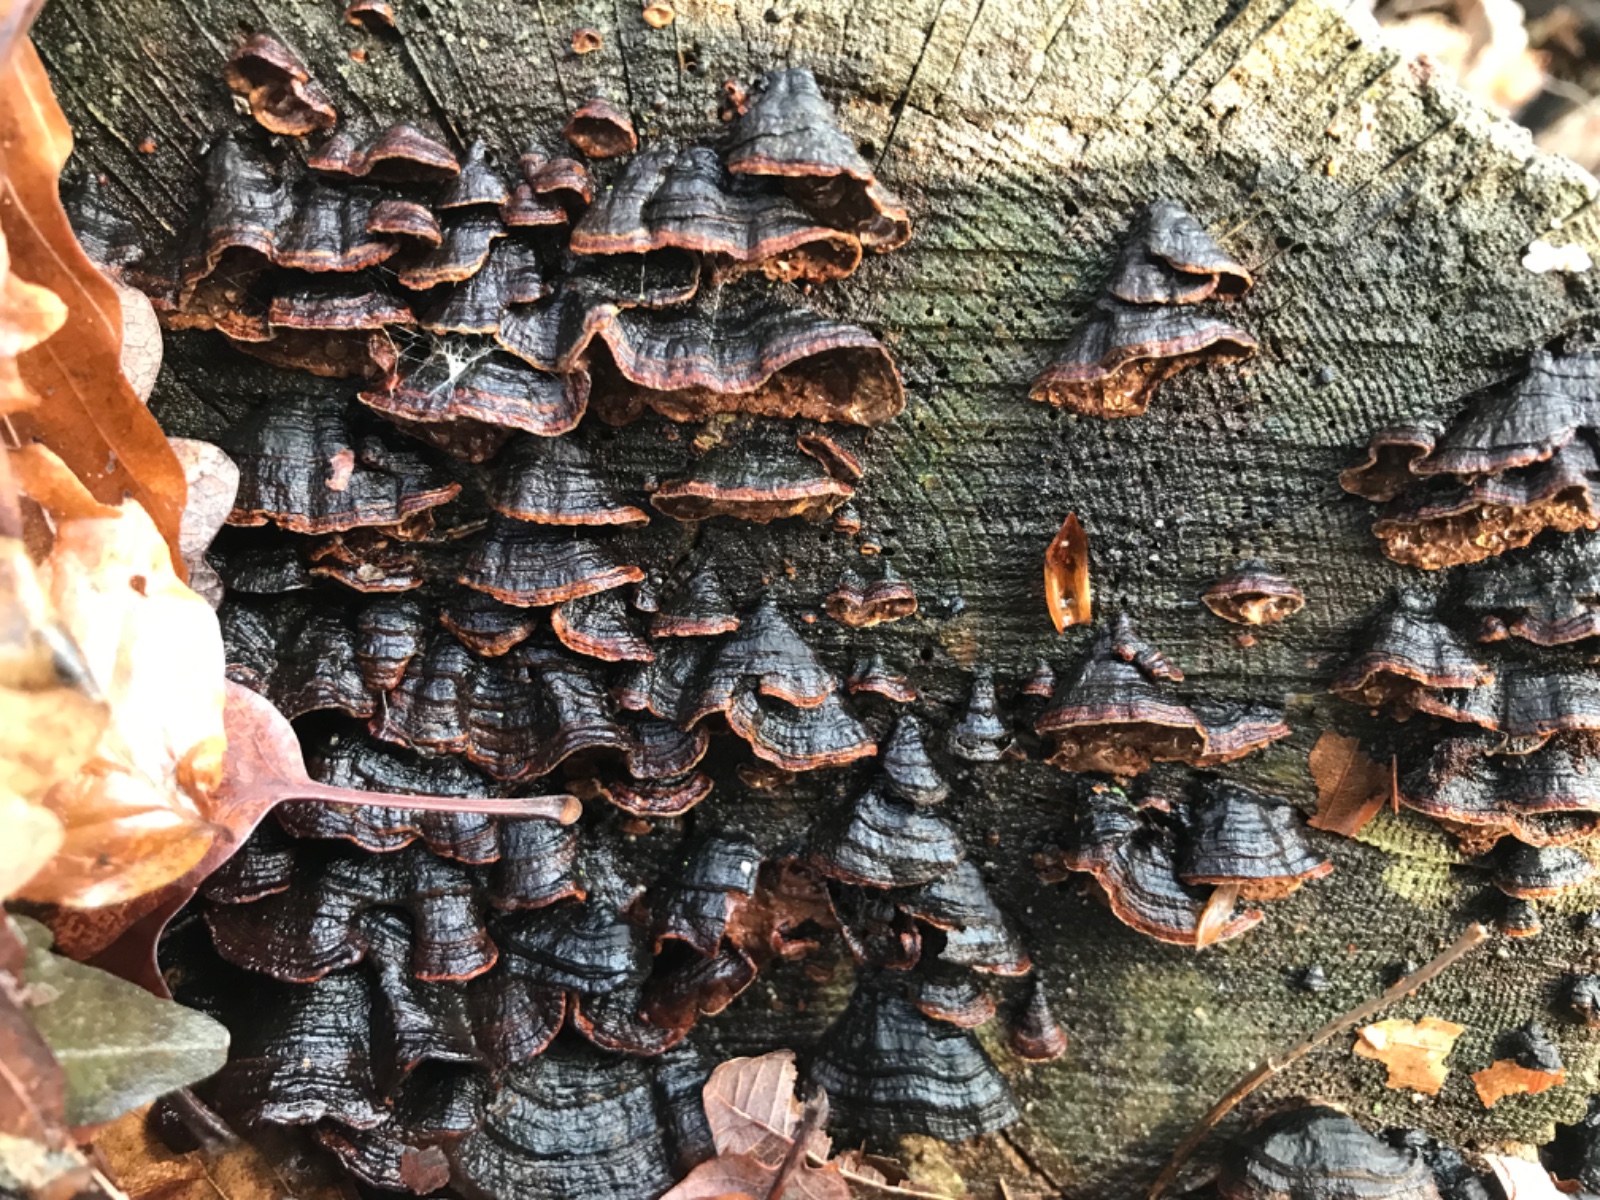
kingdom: Fungi
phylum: Basidiomycota
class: Agaricomycetes
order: Hymenochaetales
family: Hymenochaetaceae
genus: Hymenochaete
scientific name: Hymenochaete rubiginosa
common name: stiv ruslædersvamp
